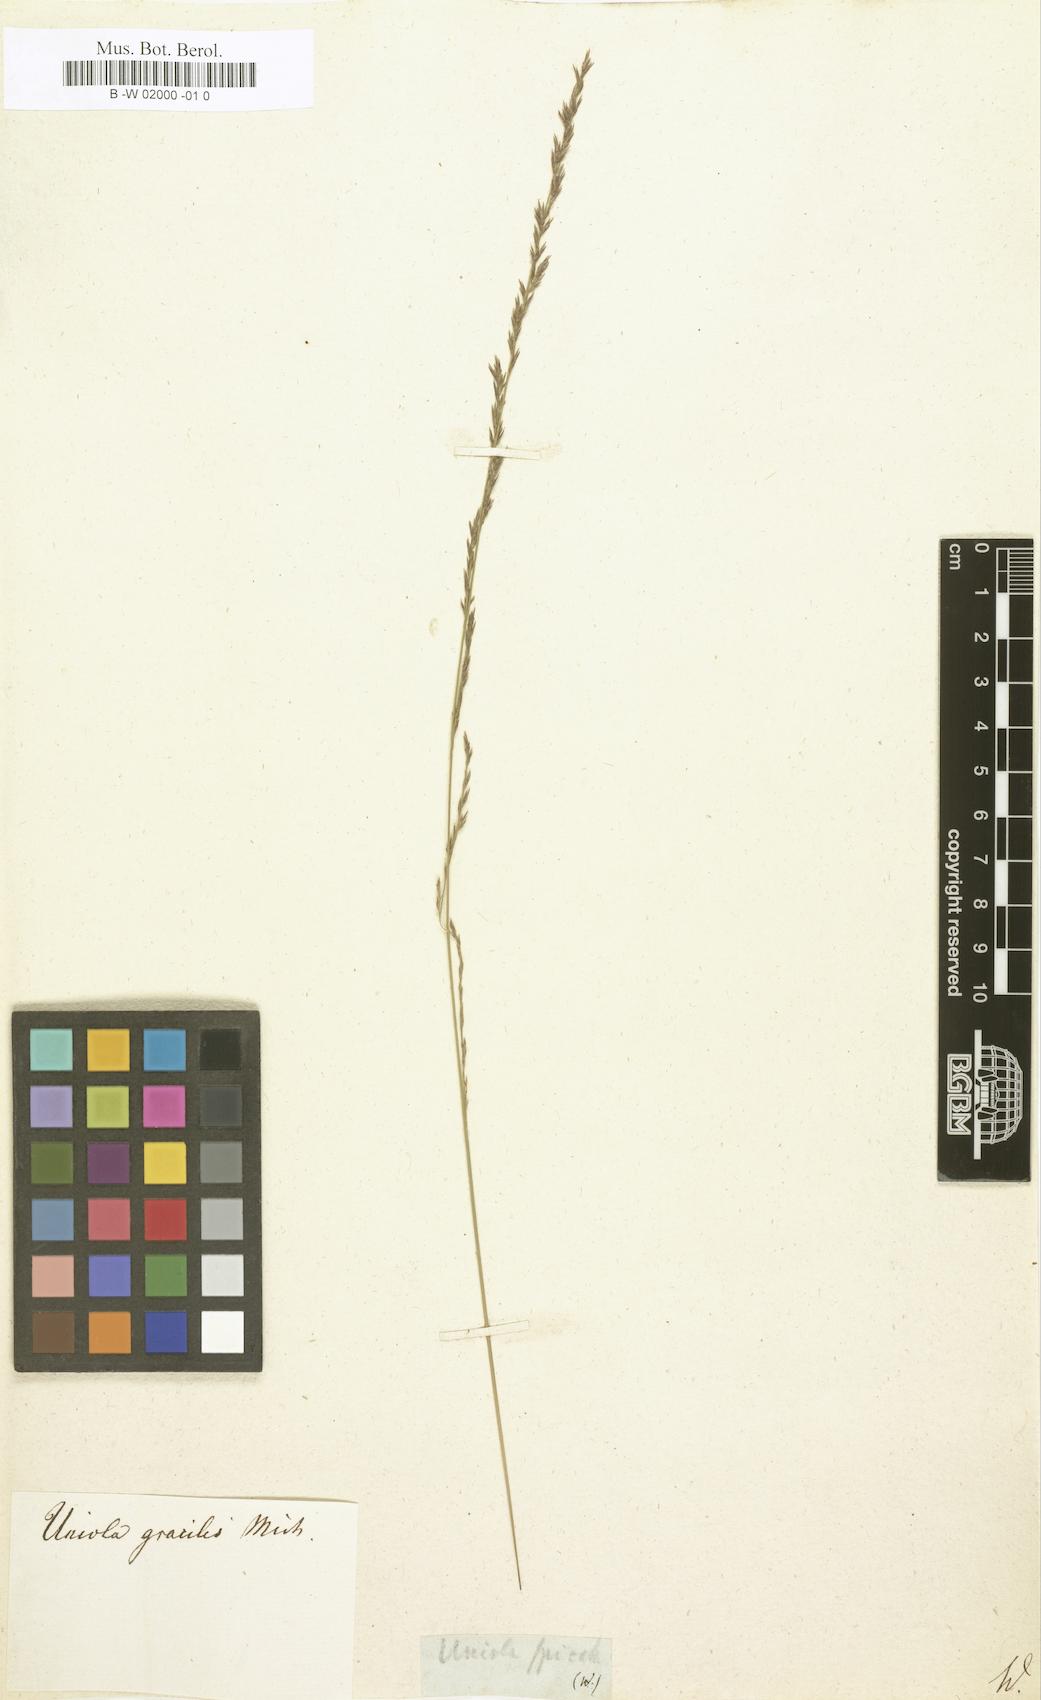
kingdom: Plantae
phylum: Tracheophyta
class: Liliopsida
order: Poales
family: Poaceae
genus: Chasmanthium
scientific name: Chasmanthium nitidum
